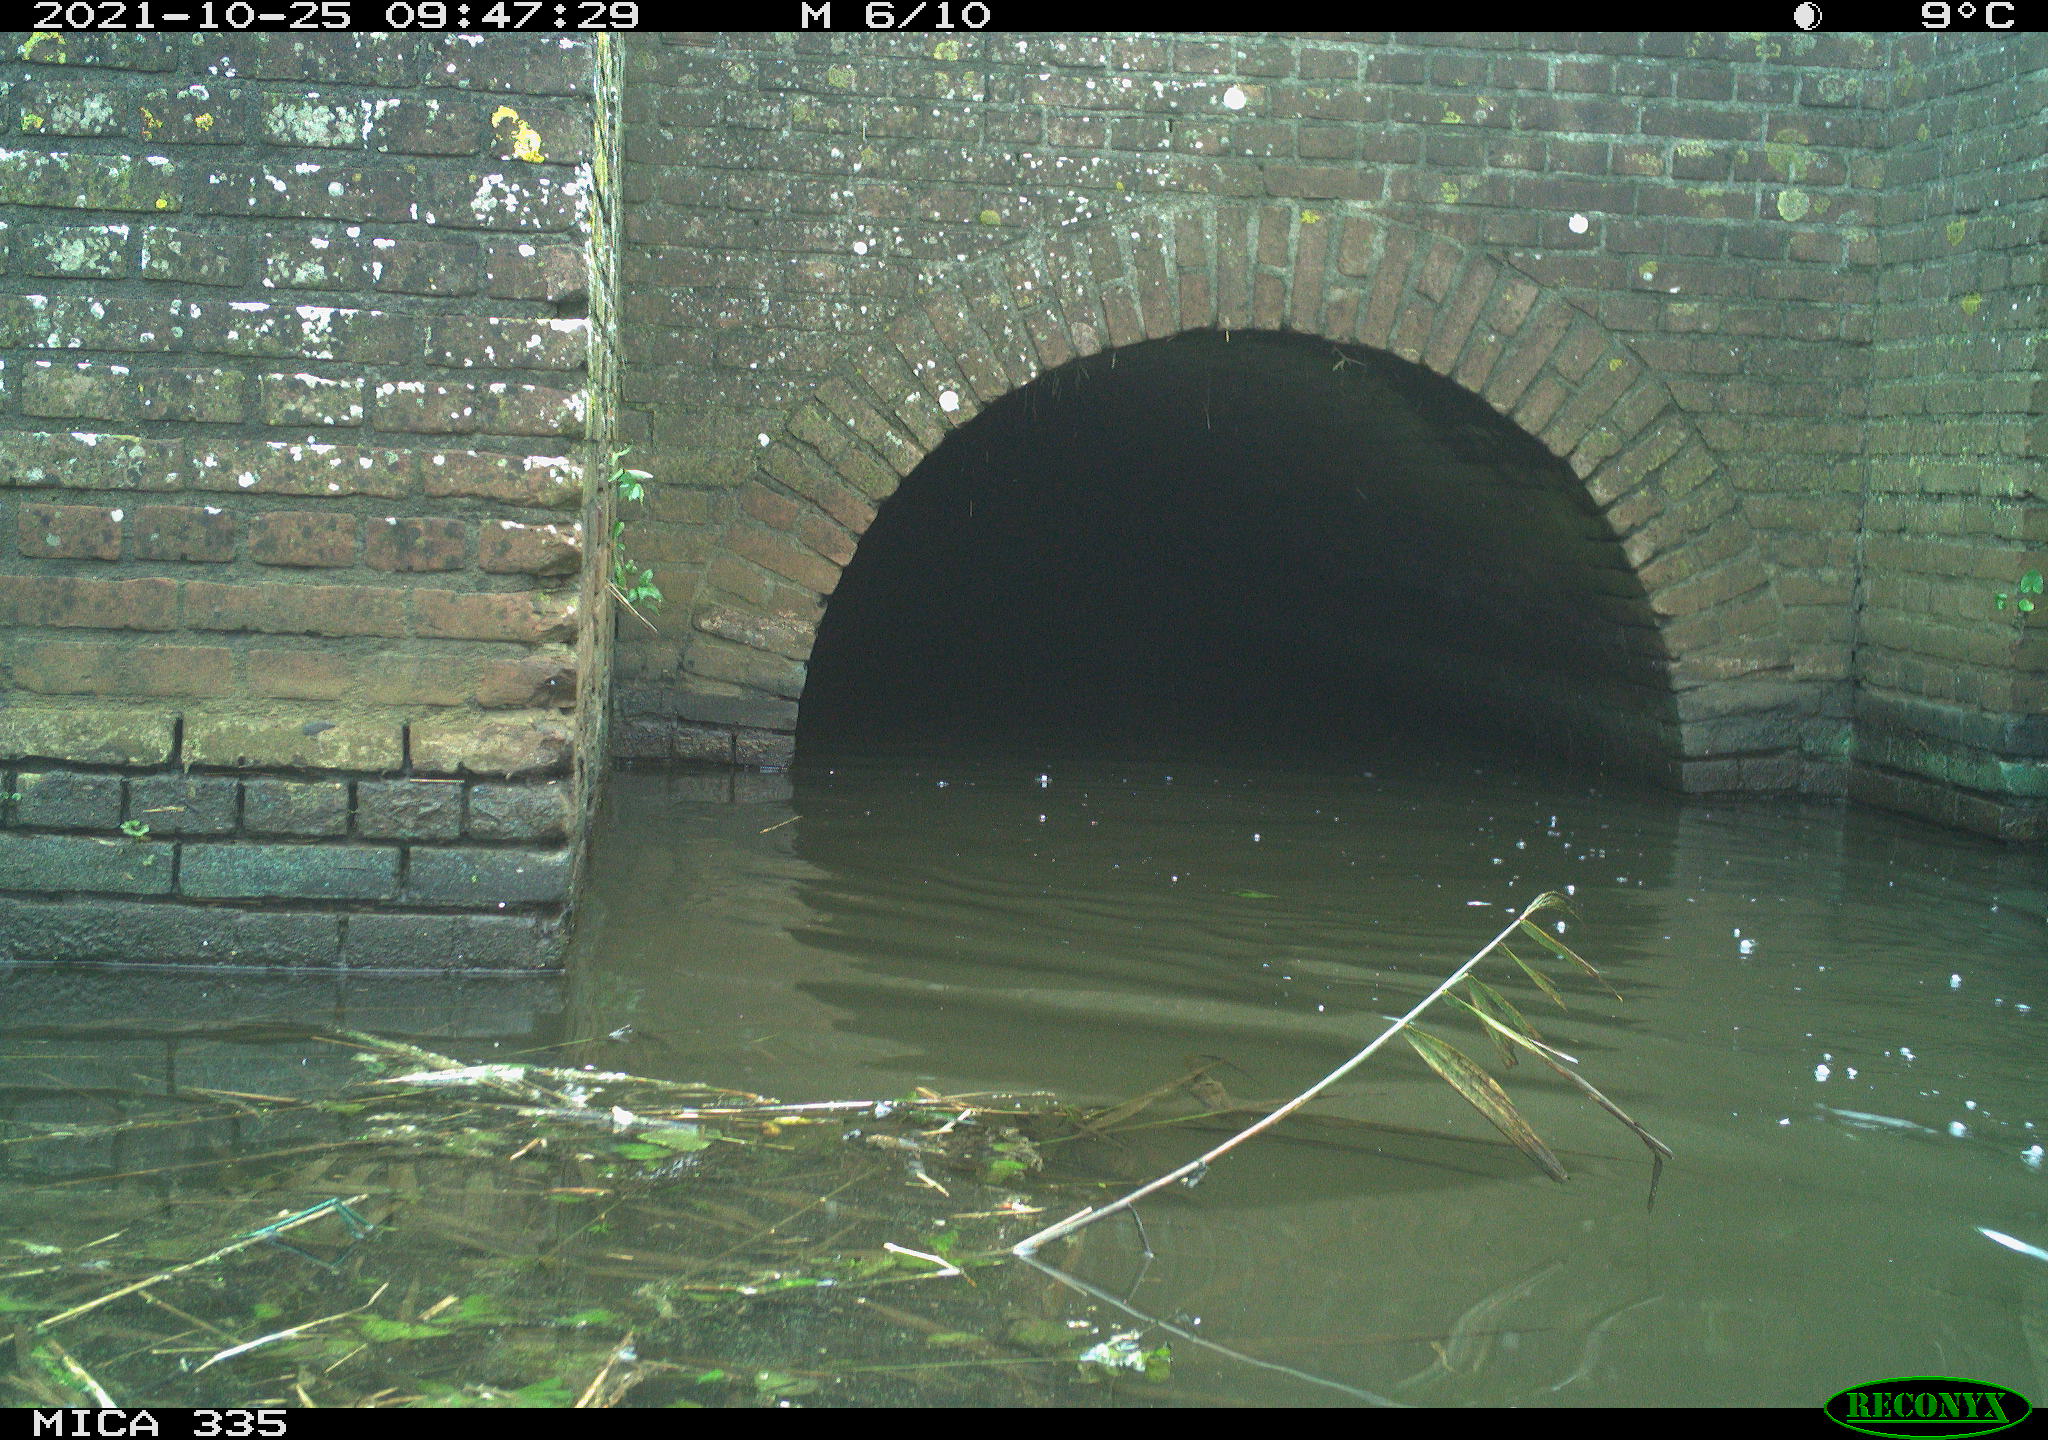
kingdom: Animalia
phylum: Chordata
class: Aves
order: Suliformes
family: Phalacrocoracidae
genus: Phalacrocorax
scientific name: Phalacrocorax carbo
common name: Great cormorant
